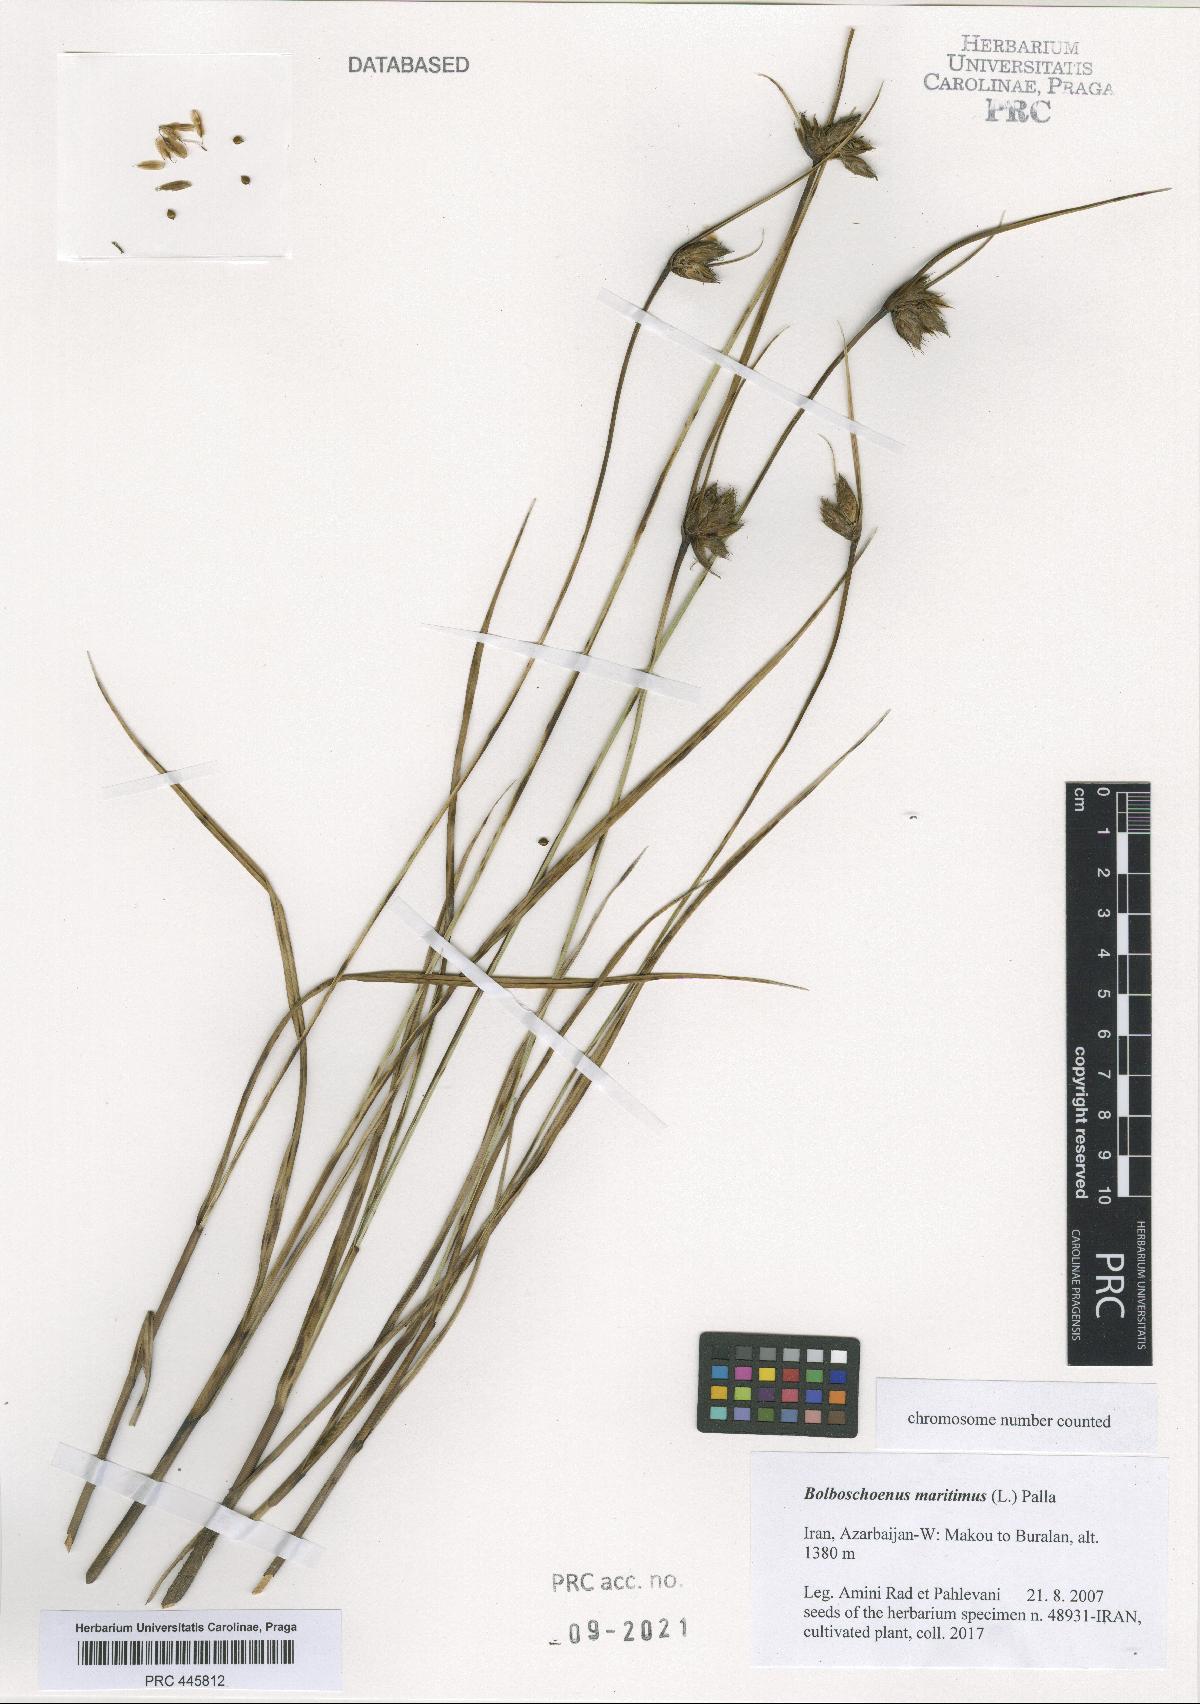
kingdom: Plantae
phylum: Tracheophyta
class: Liliopsida
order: Poales
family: Cyperaceae
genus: Bolboschoenus
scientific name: Bolboschoenus maritimus
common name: Sea club-rush
